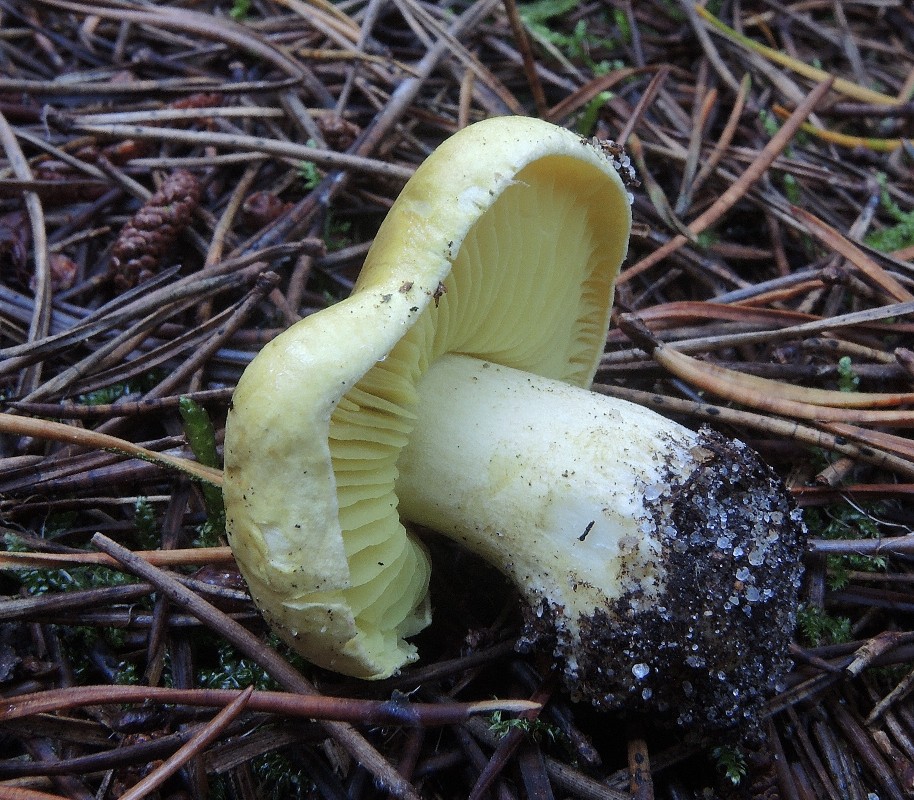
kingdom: Fungi
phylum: Basidiomycota
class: Agaricomycetes
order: Agaricales
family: Tricholomataceae
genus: Tricholoma
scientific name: Tricholoma equestre
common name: ægte ridderhat
